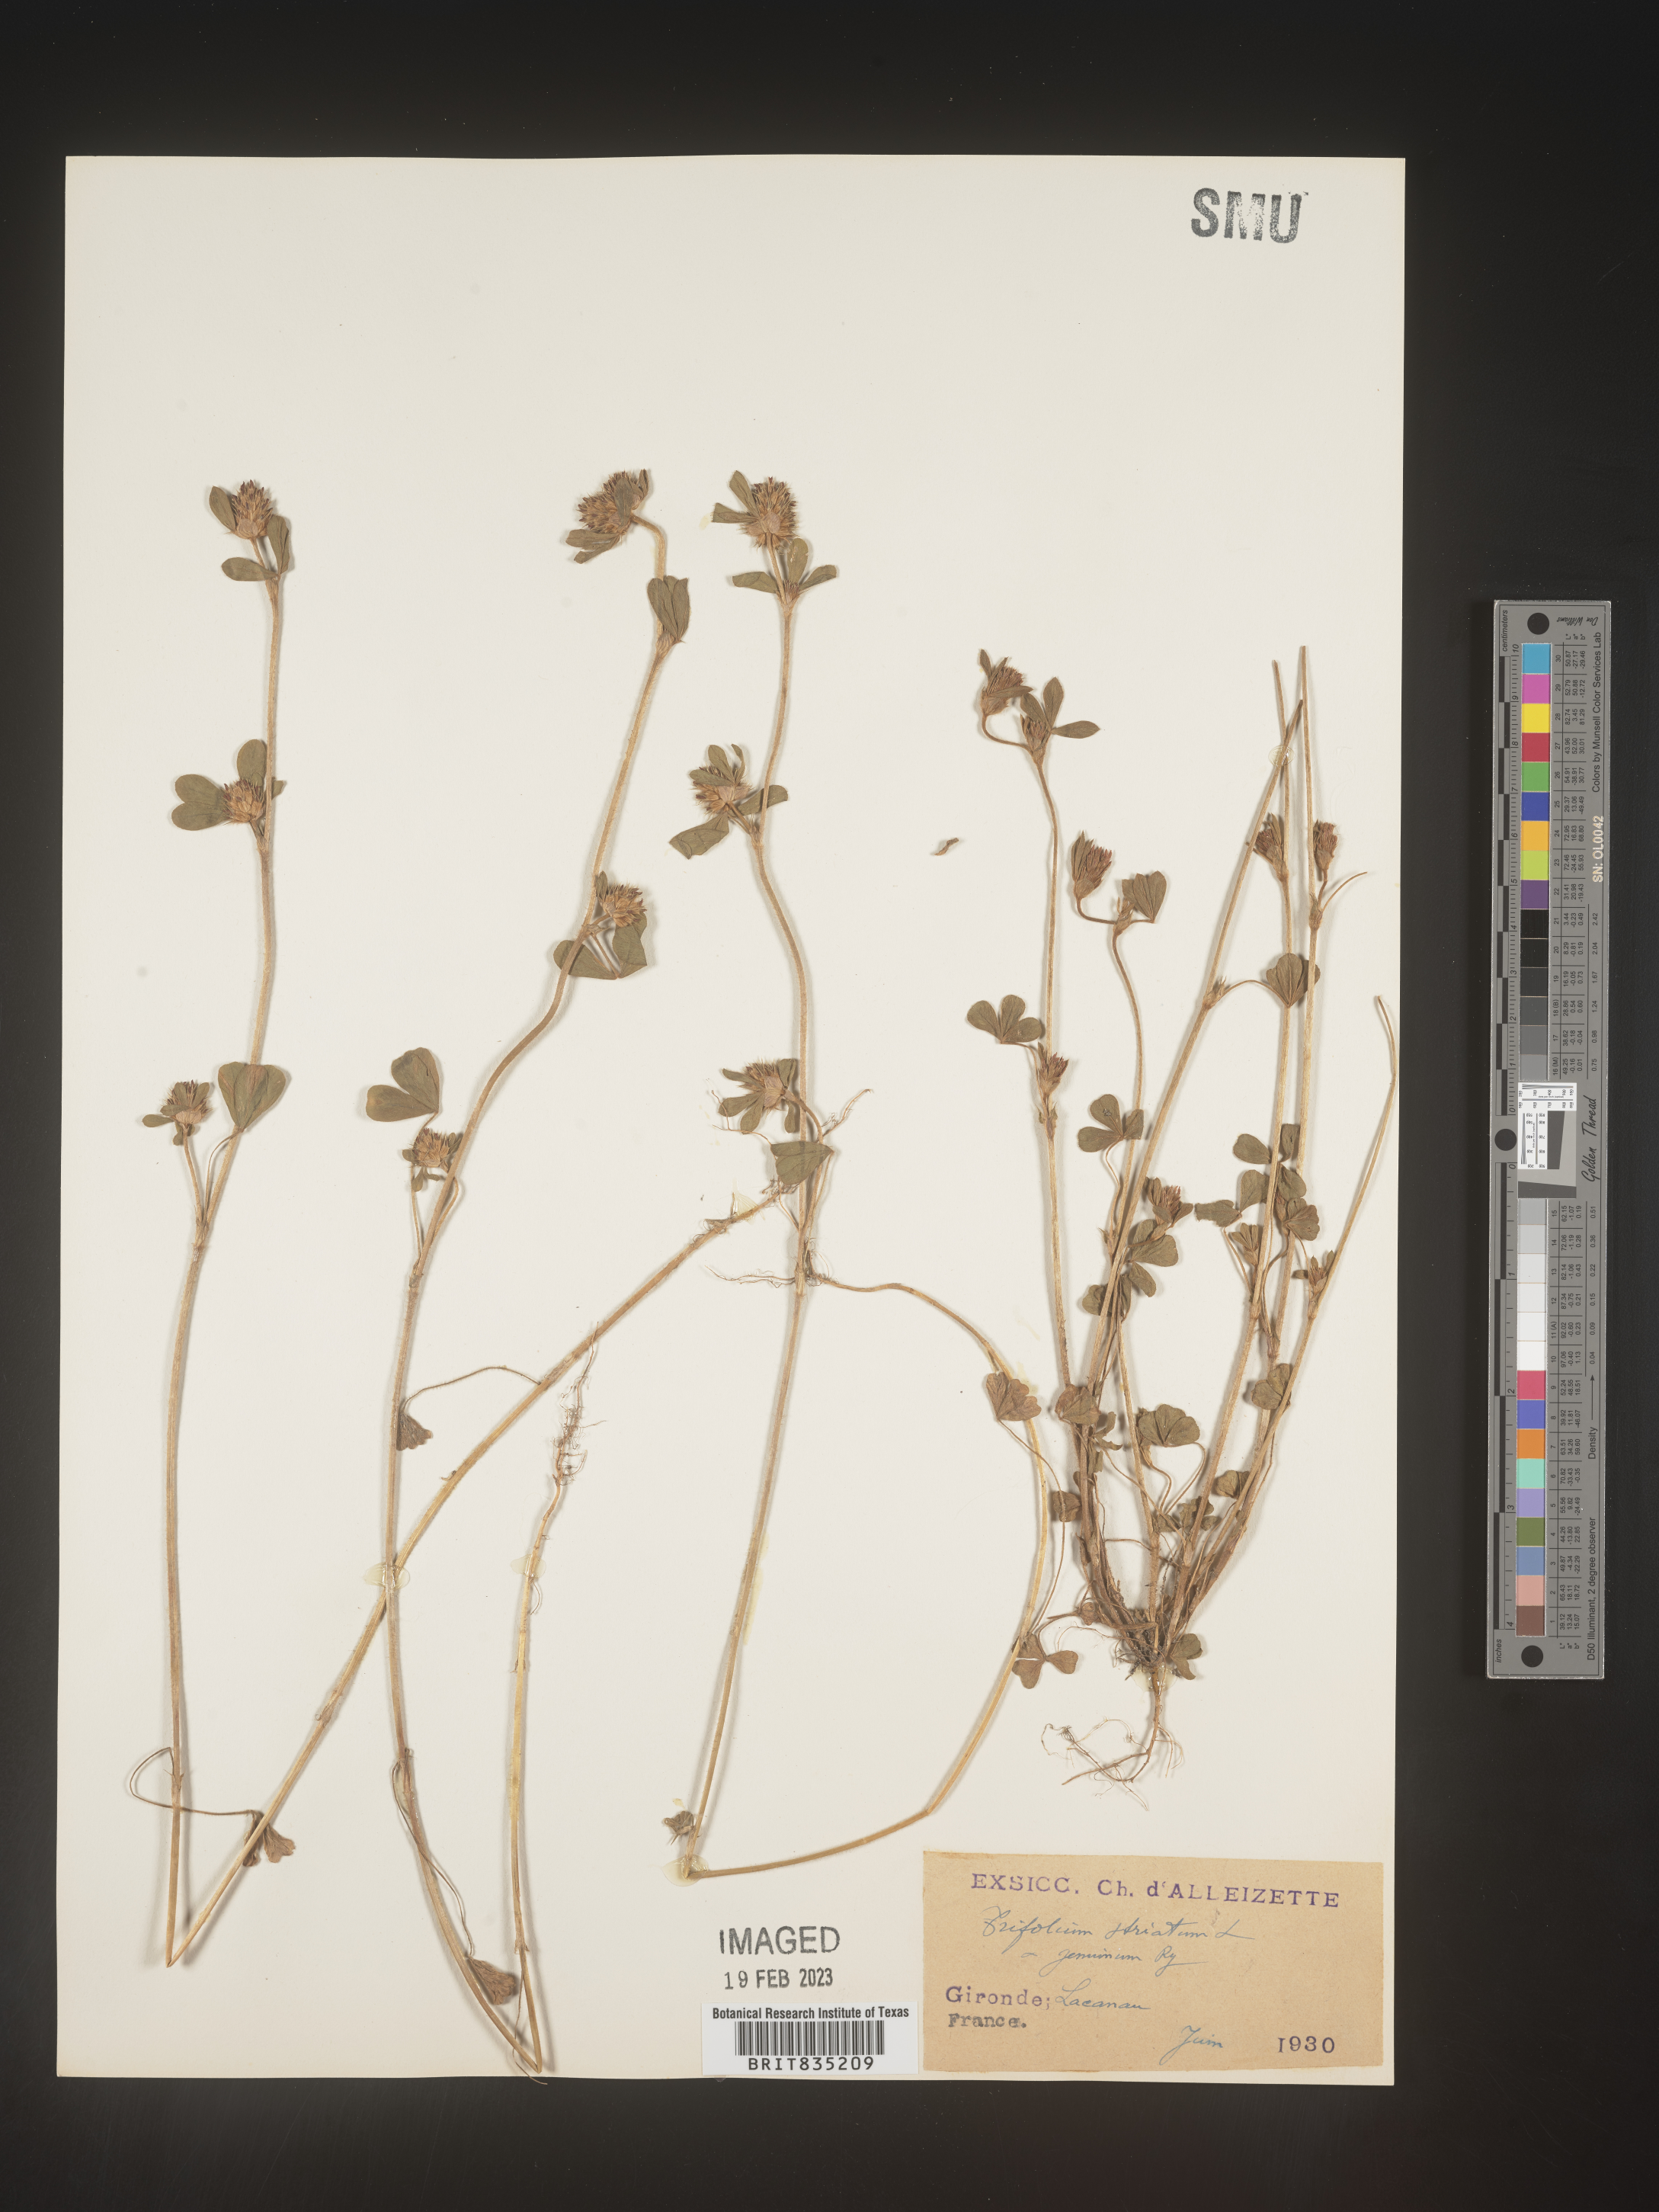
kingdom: Plantae
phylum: Tracheophyta
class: Magnoliopsida
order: Fabales
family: Fabaceae
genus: Trifolium
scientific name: Trifolium
